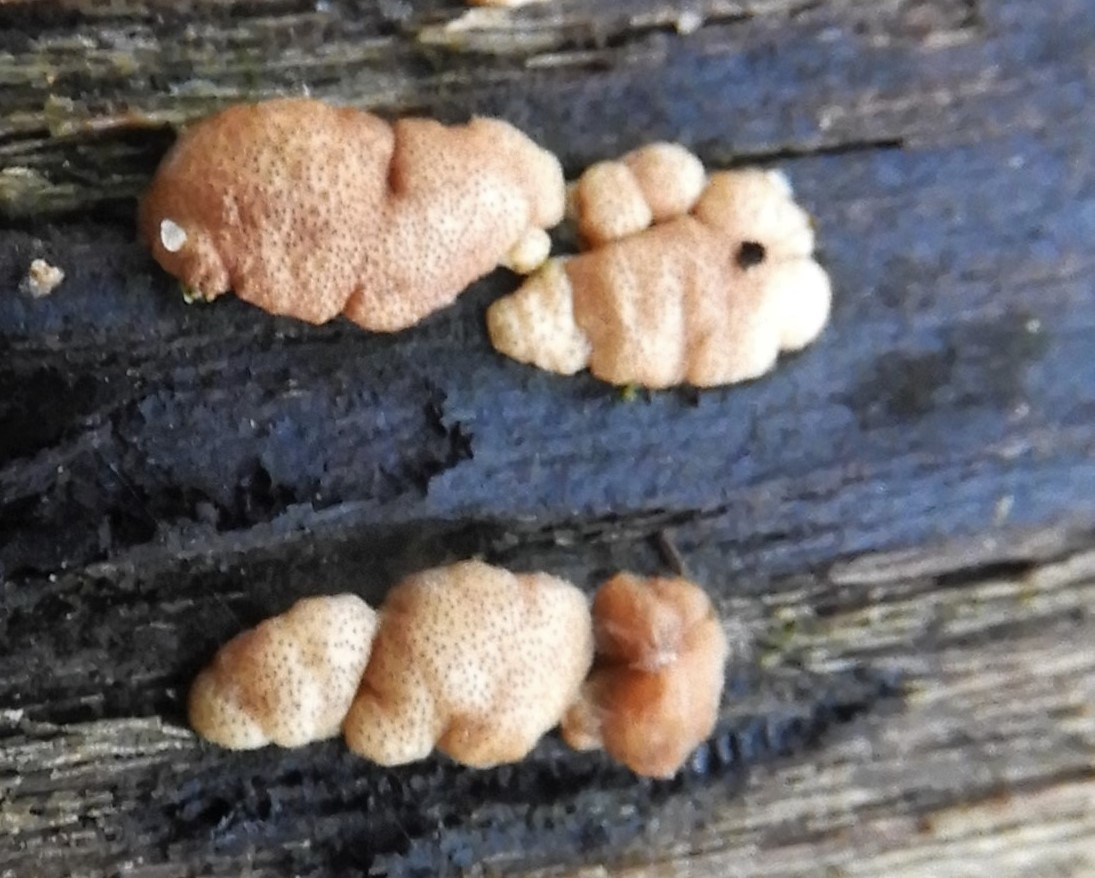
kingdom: Fungi
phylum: Ascomycota
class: Sordariomycetes
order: Hypocreales
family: Hypocreaceae
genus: Trichoderma
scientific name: Trichoderma europaeum
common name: rosabrun kødkerne
